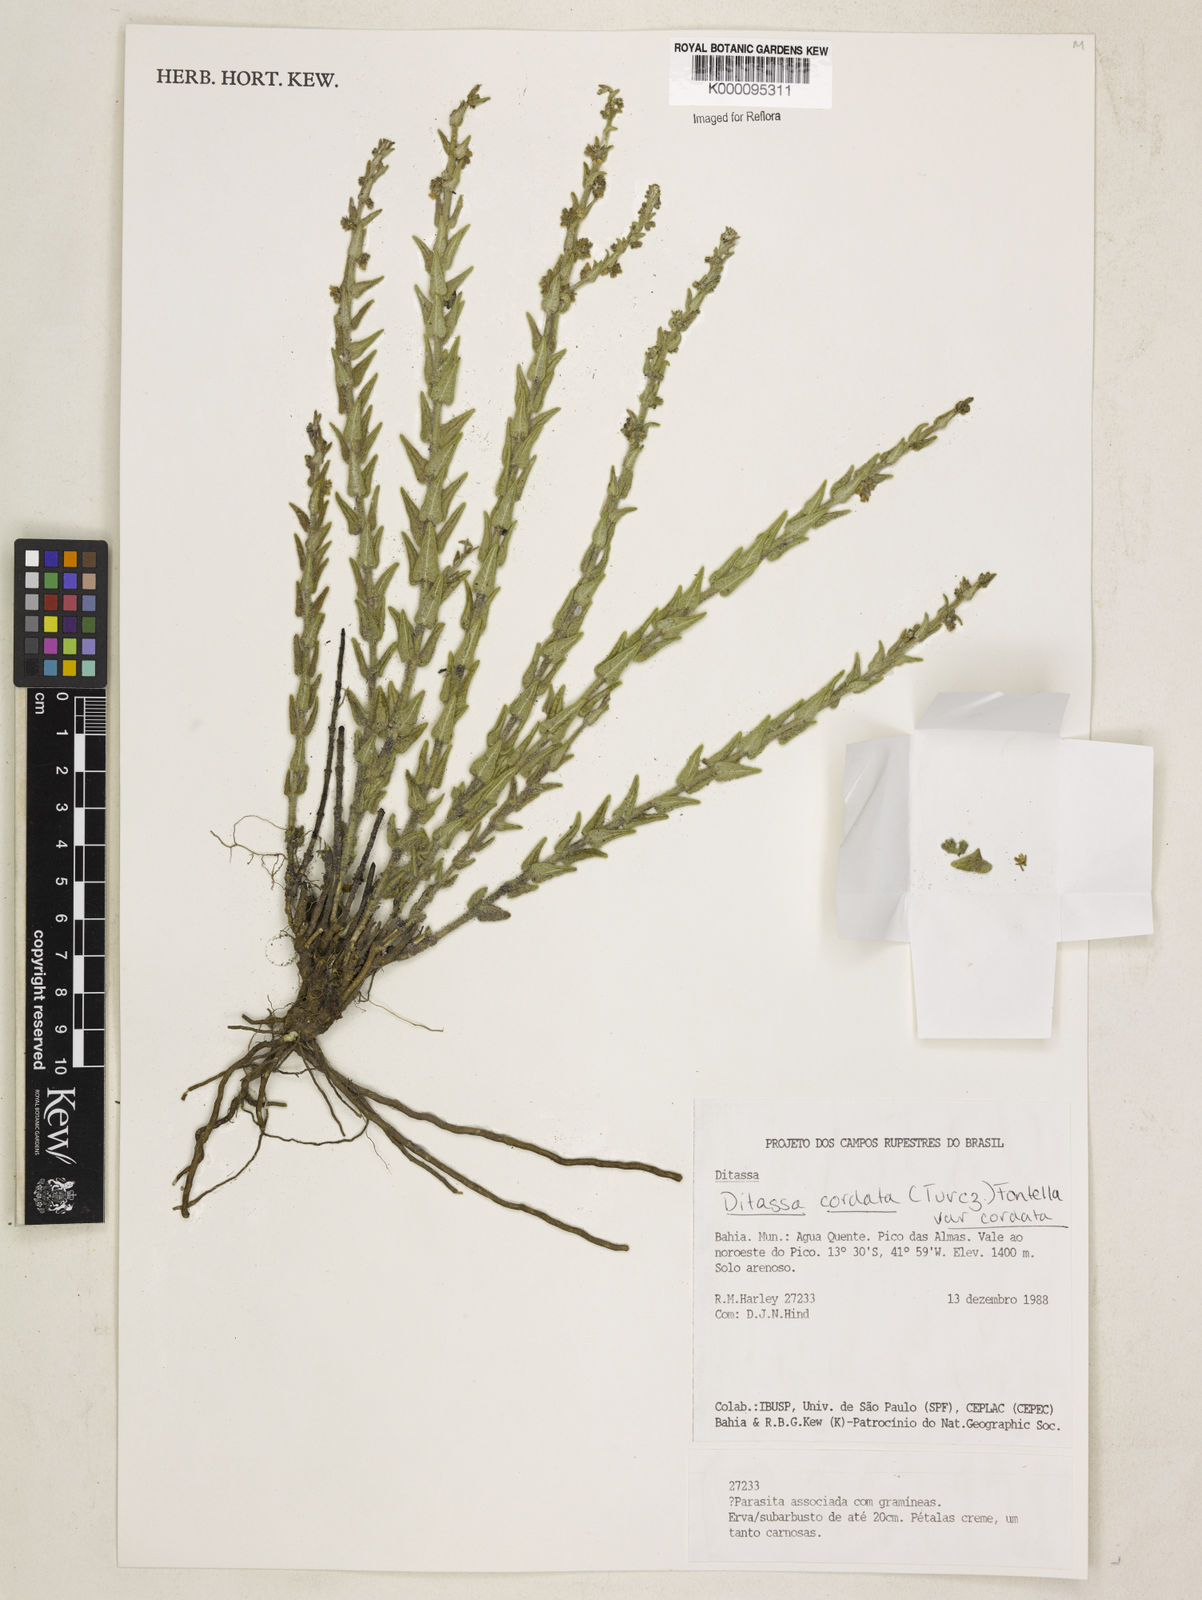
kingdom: Plantae
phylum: Tracheophyta
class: Magnoliopsida
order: Gentianales
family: Apocynaceae
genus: Minaria
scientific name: Minaria cordata
